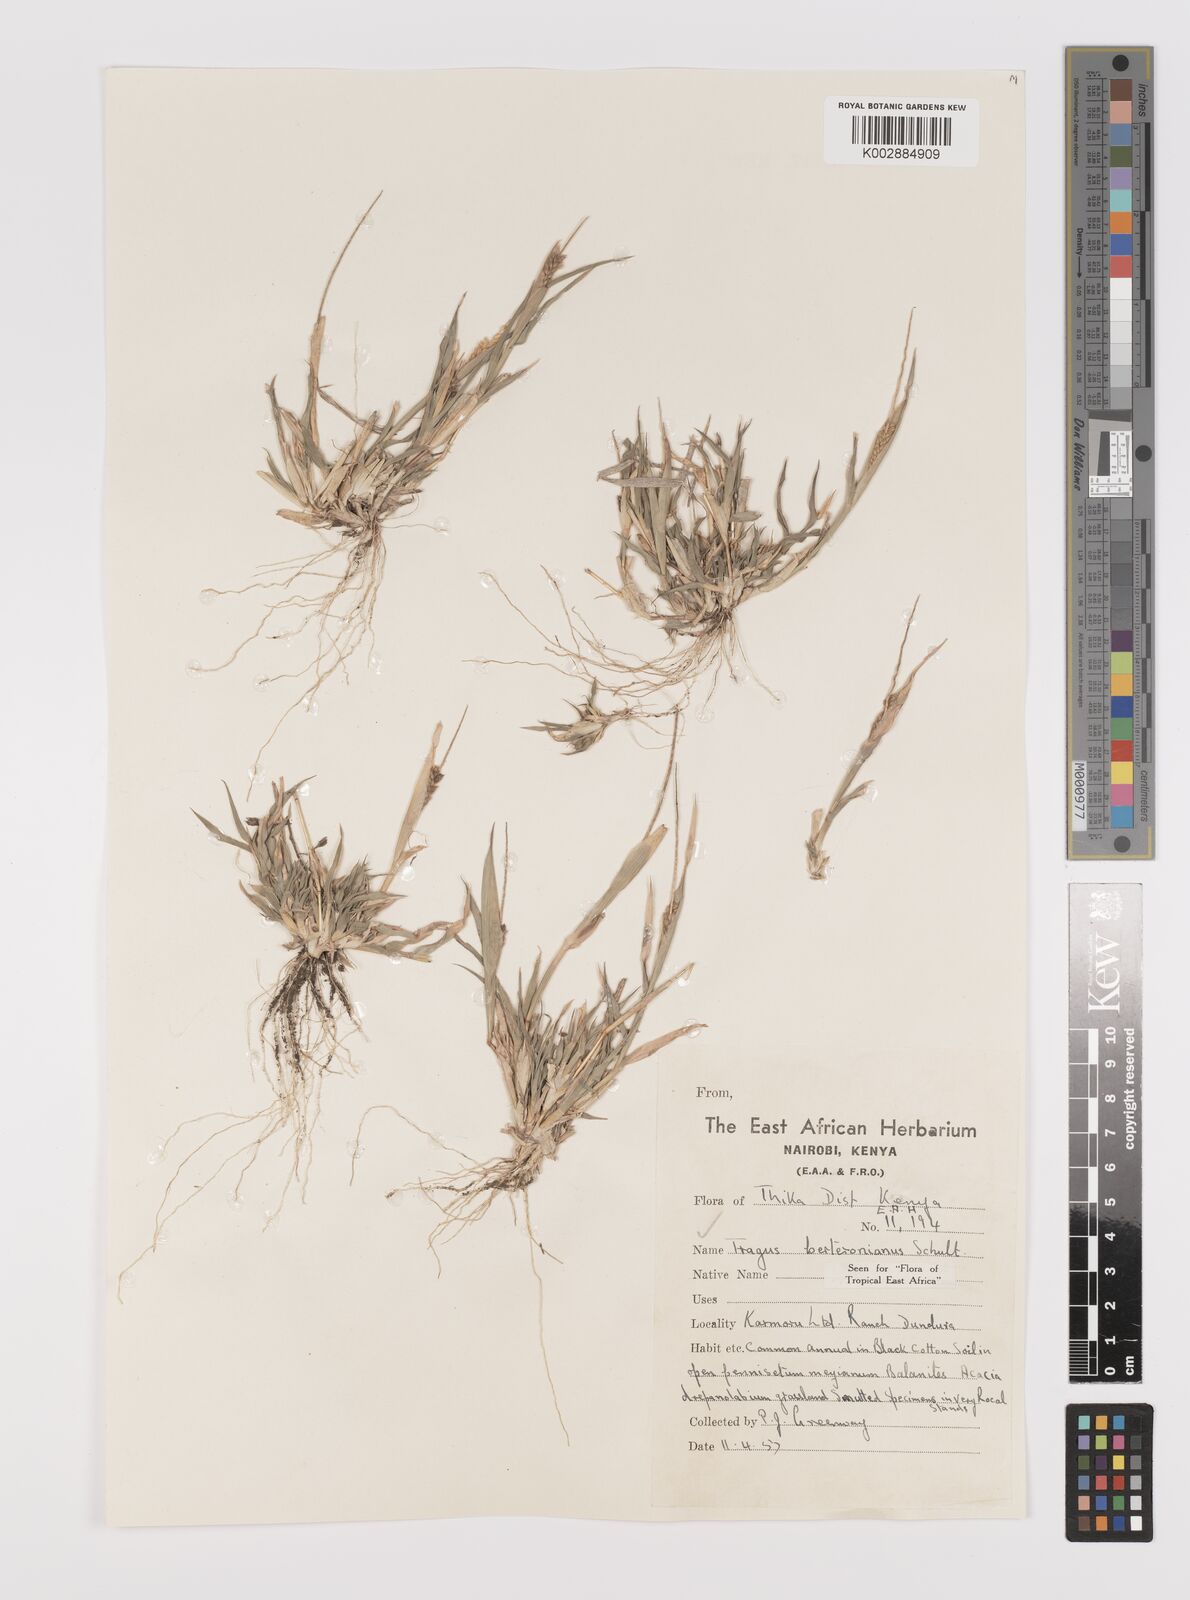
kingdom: Plantae
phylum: Tracheophyta
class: Liliopsida
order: Poales
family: Poaceae
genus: Tragus
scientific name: Tragus berteronianus
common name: African bur-grass
